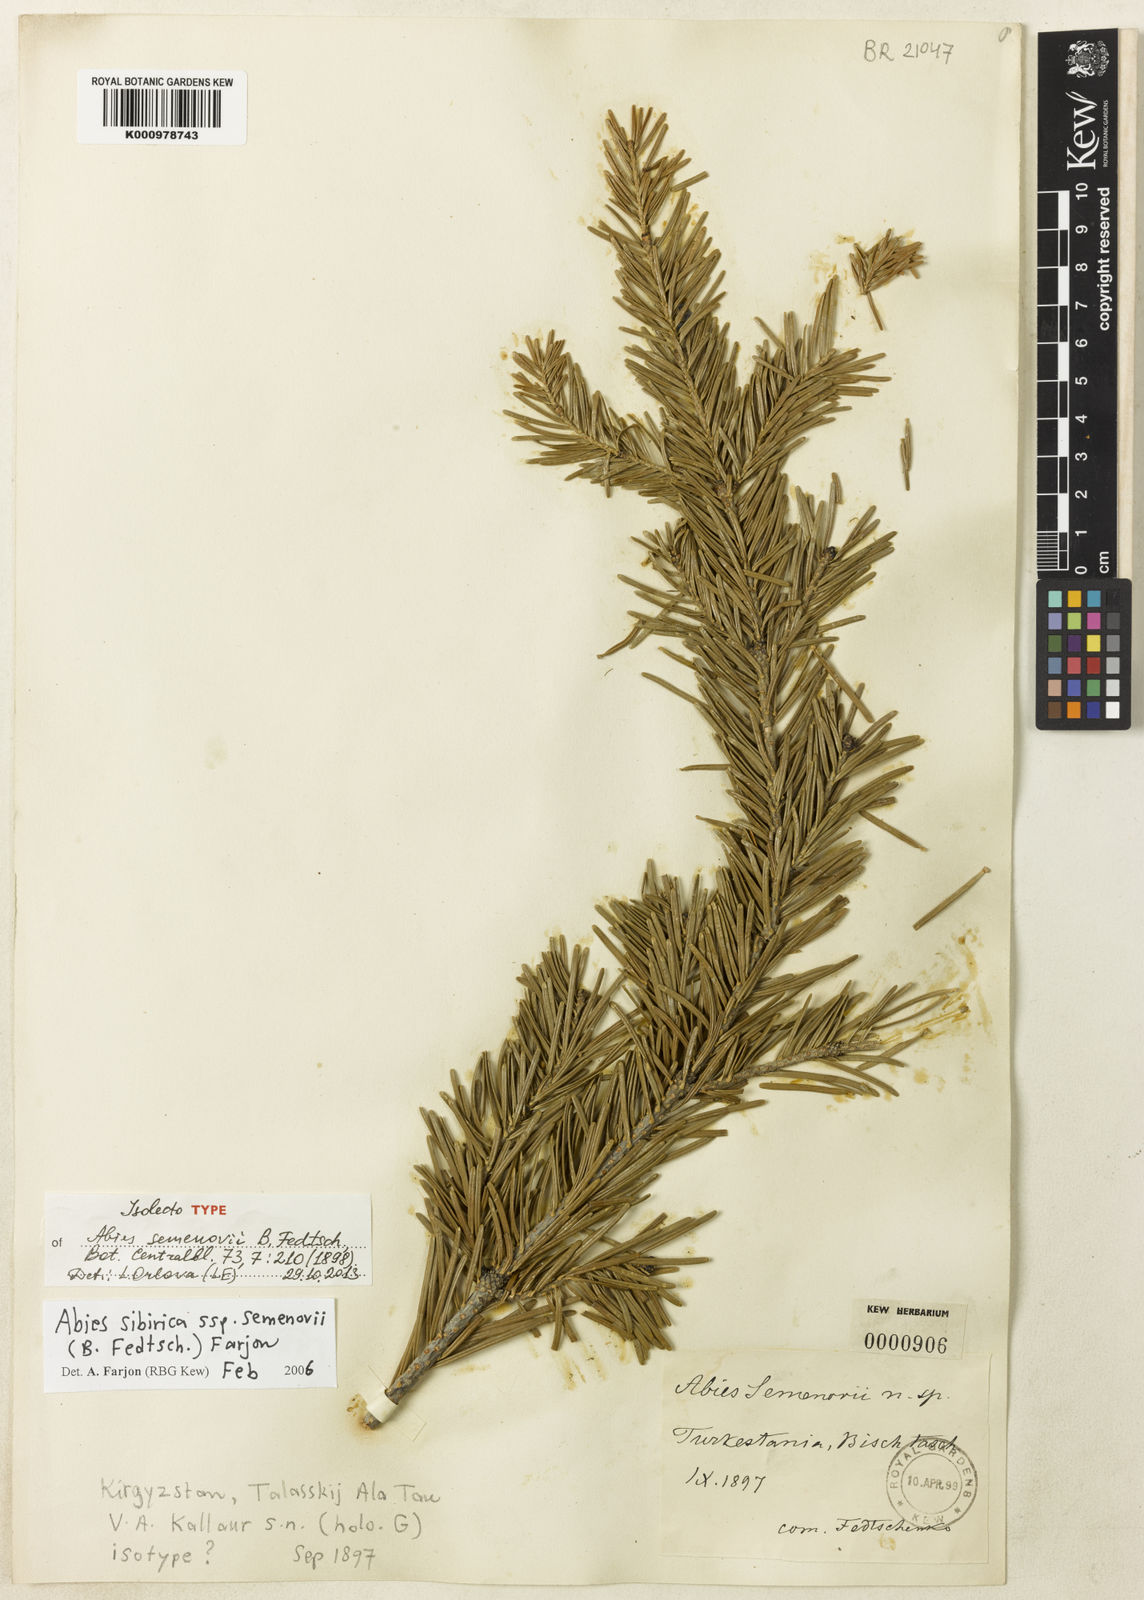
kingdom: Plantae
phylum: Tracheophyta
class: Pinopsida
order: Pinales
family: Pinaceae
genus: Abies
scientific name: Abies sibirica
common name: Siberian fir
